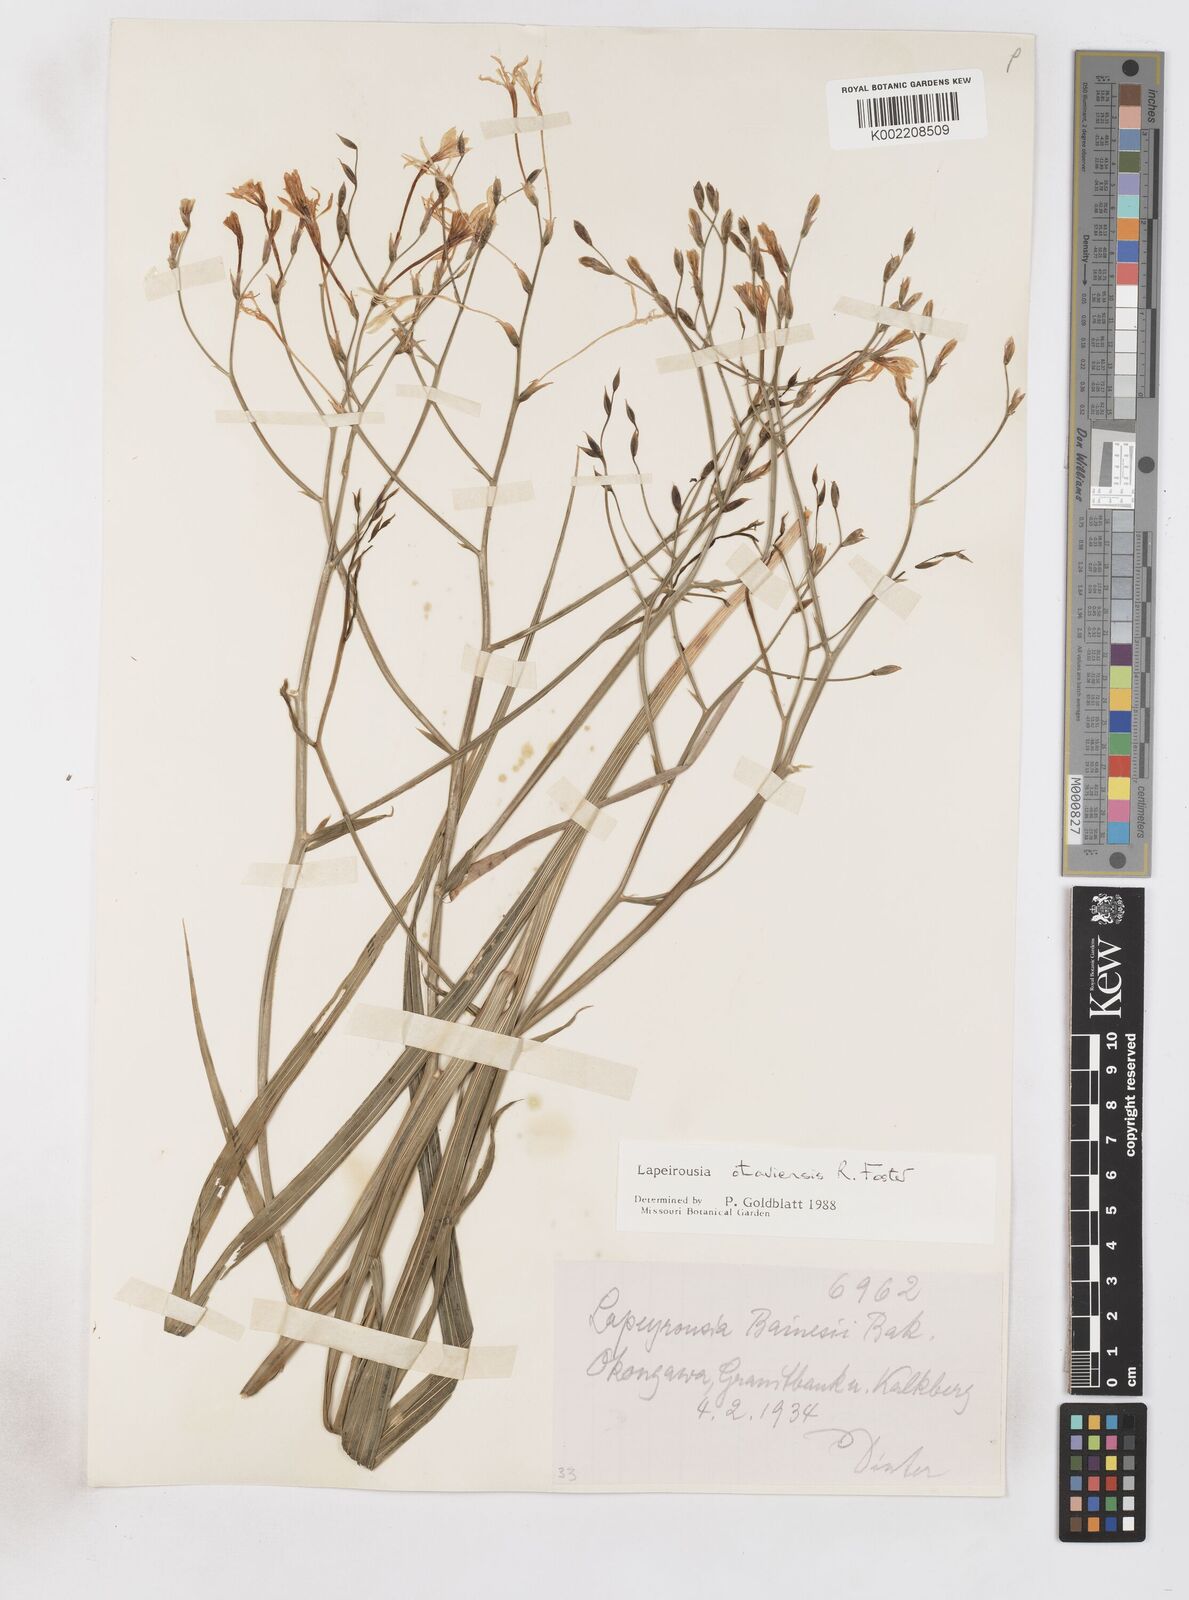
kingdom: Plantae
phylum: Tracheophyta
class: Liliopsida
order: Asparagales
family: Iridaceae
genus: Afrosolen
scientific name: Afrosolen otaviensis
